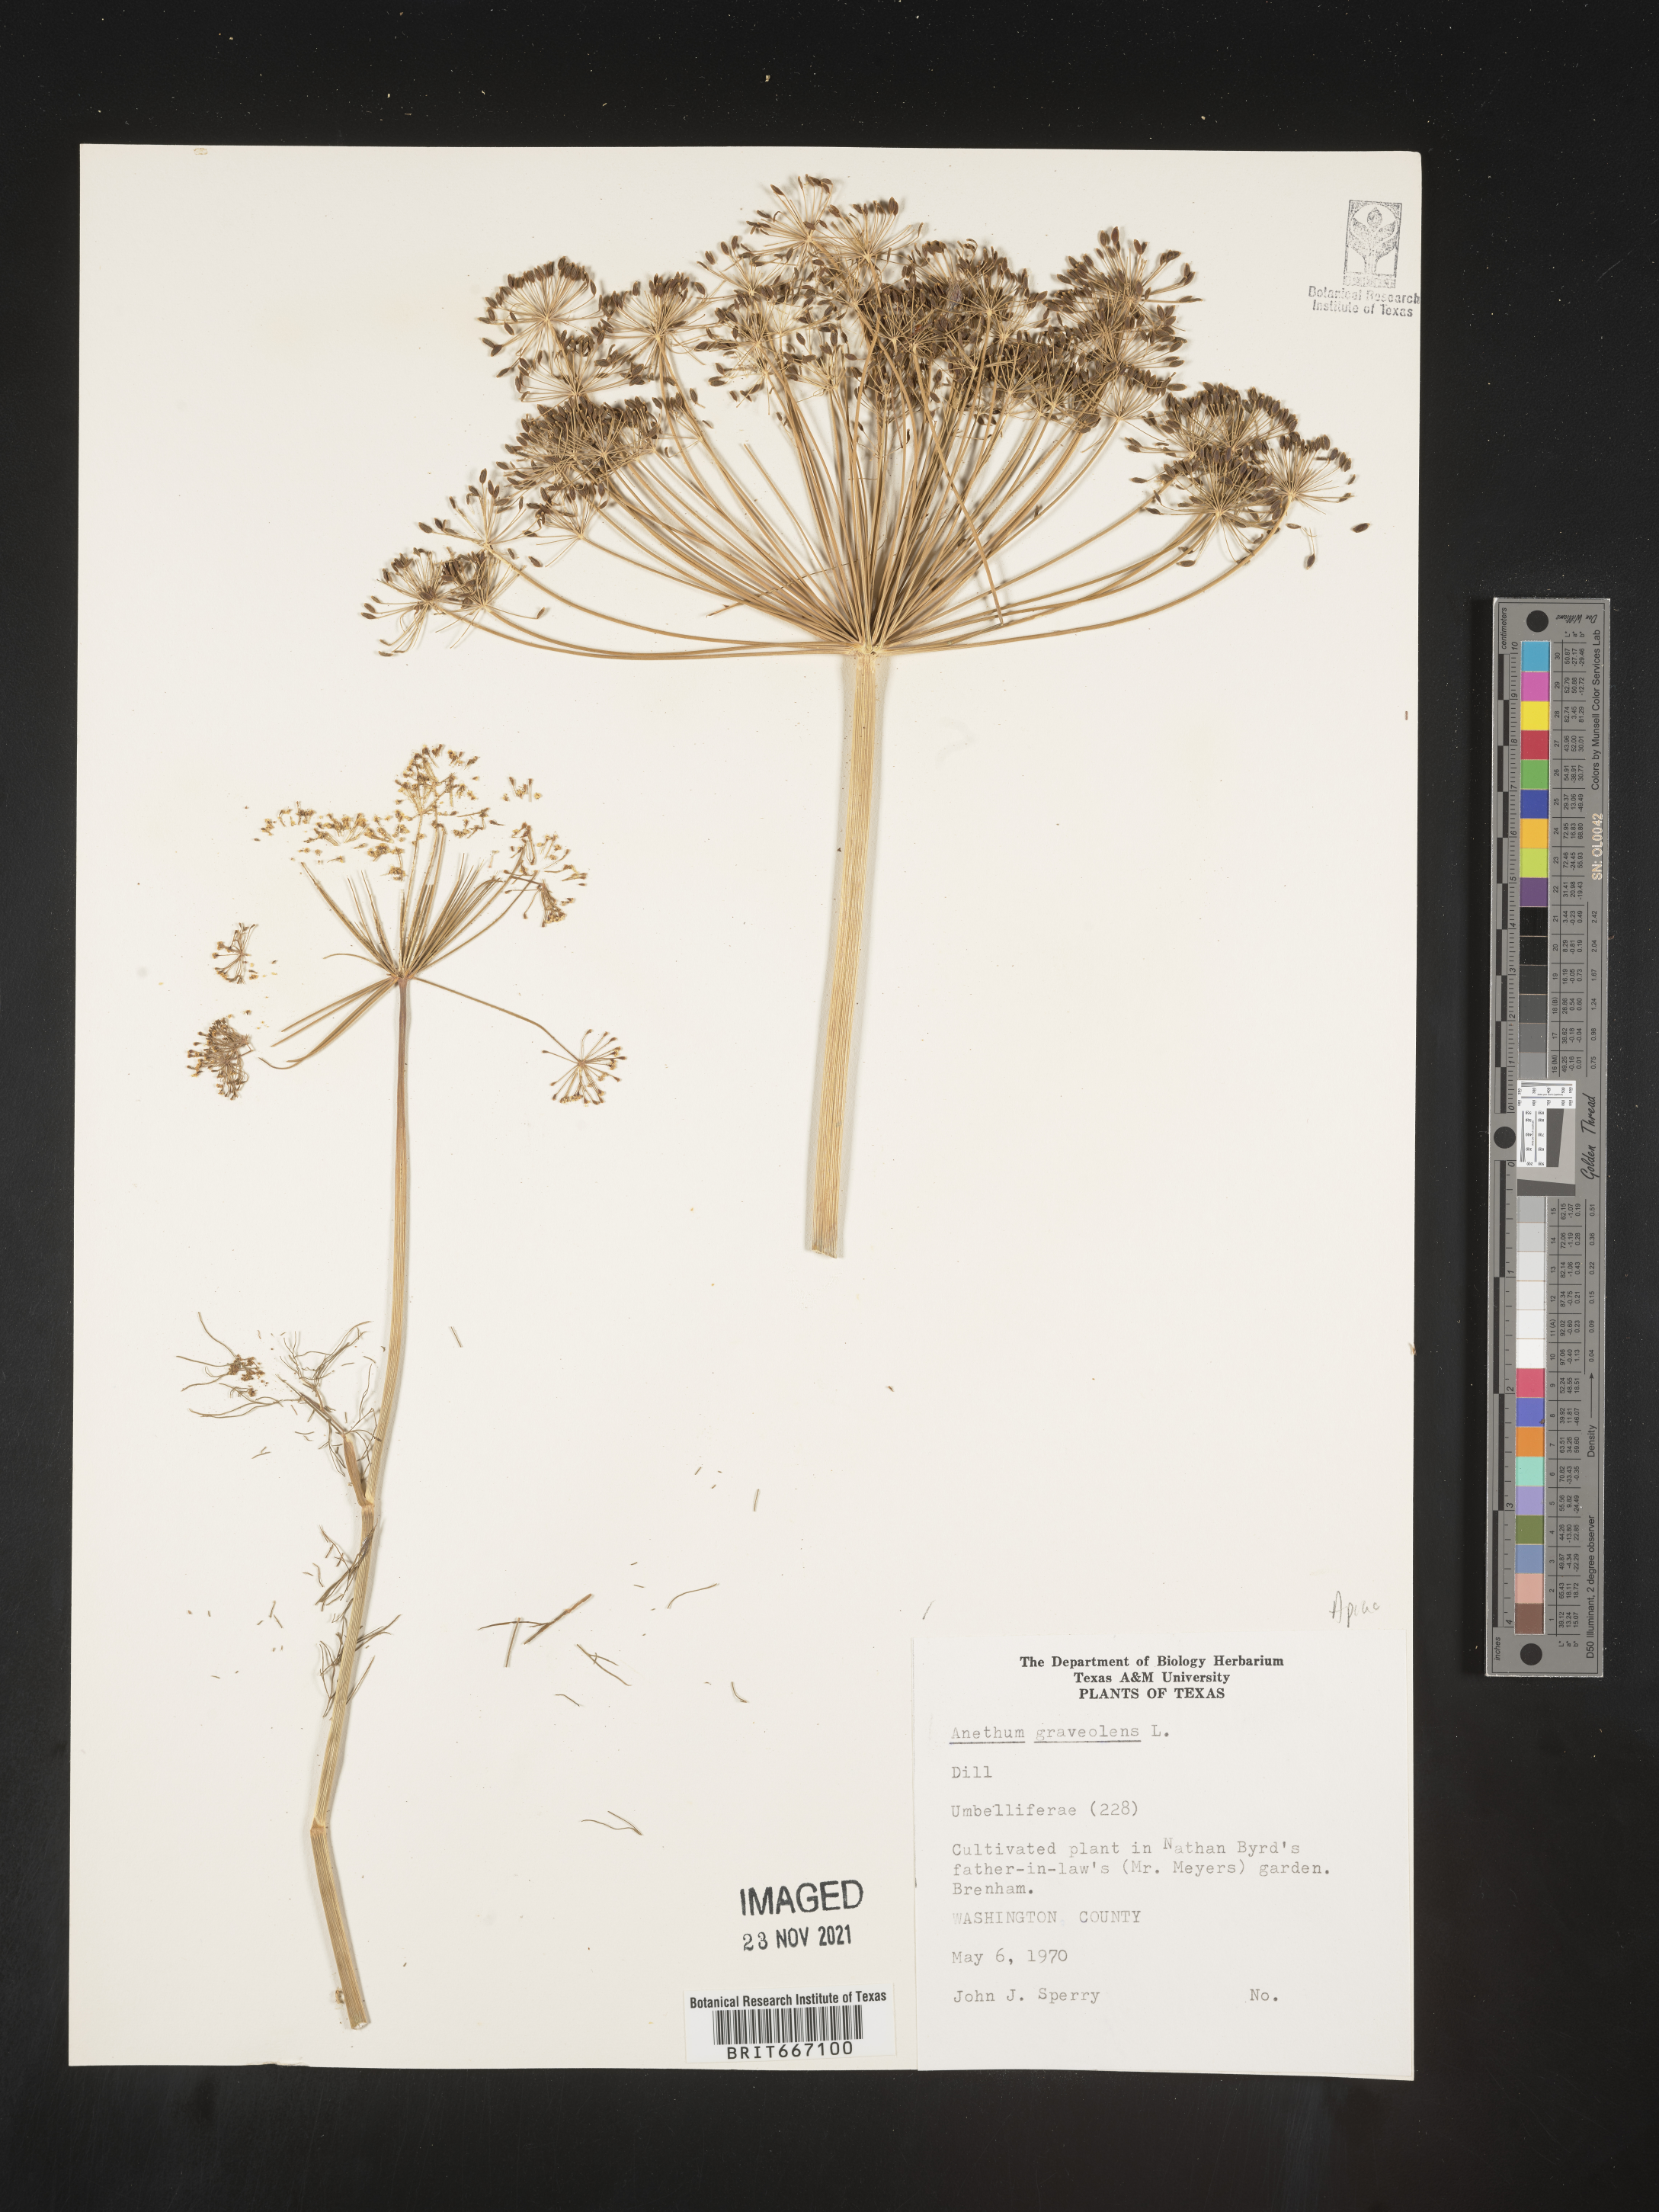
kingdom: Plantae
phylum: Tracheophyta
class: Magnoliopsida
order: Apiales
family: Apiaceae
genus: Anethum
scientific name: Anethum
